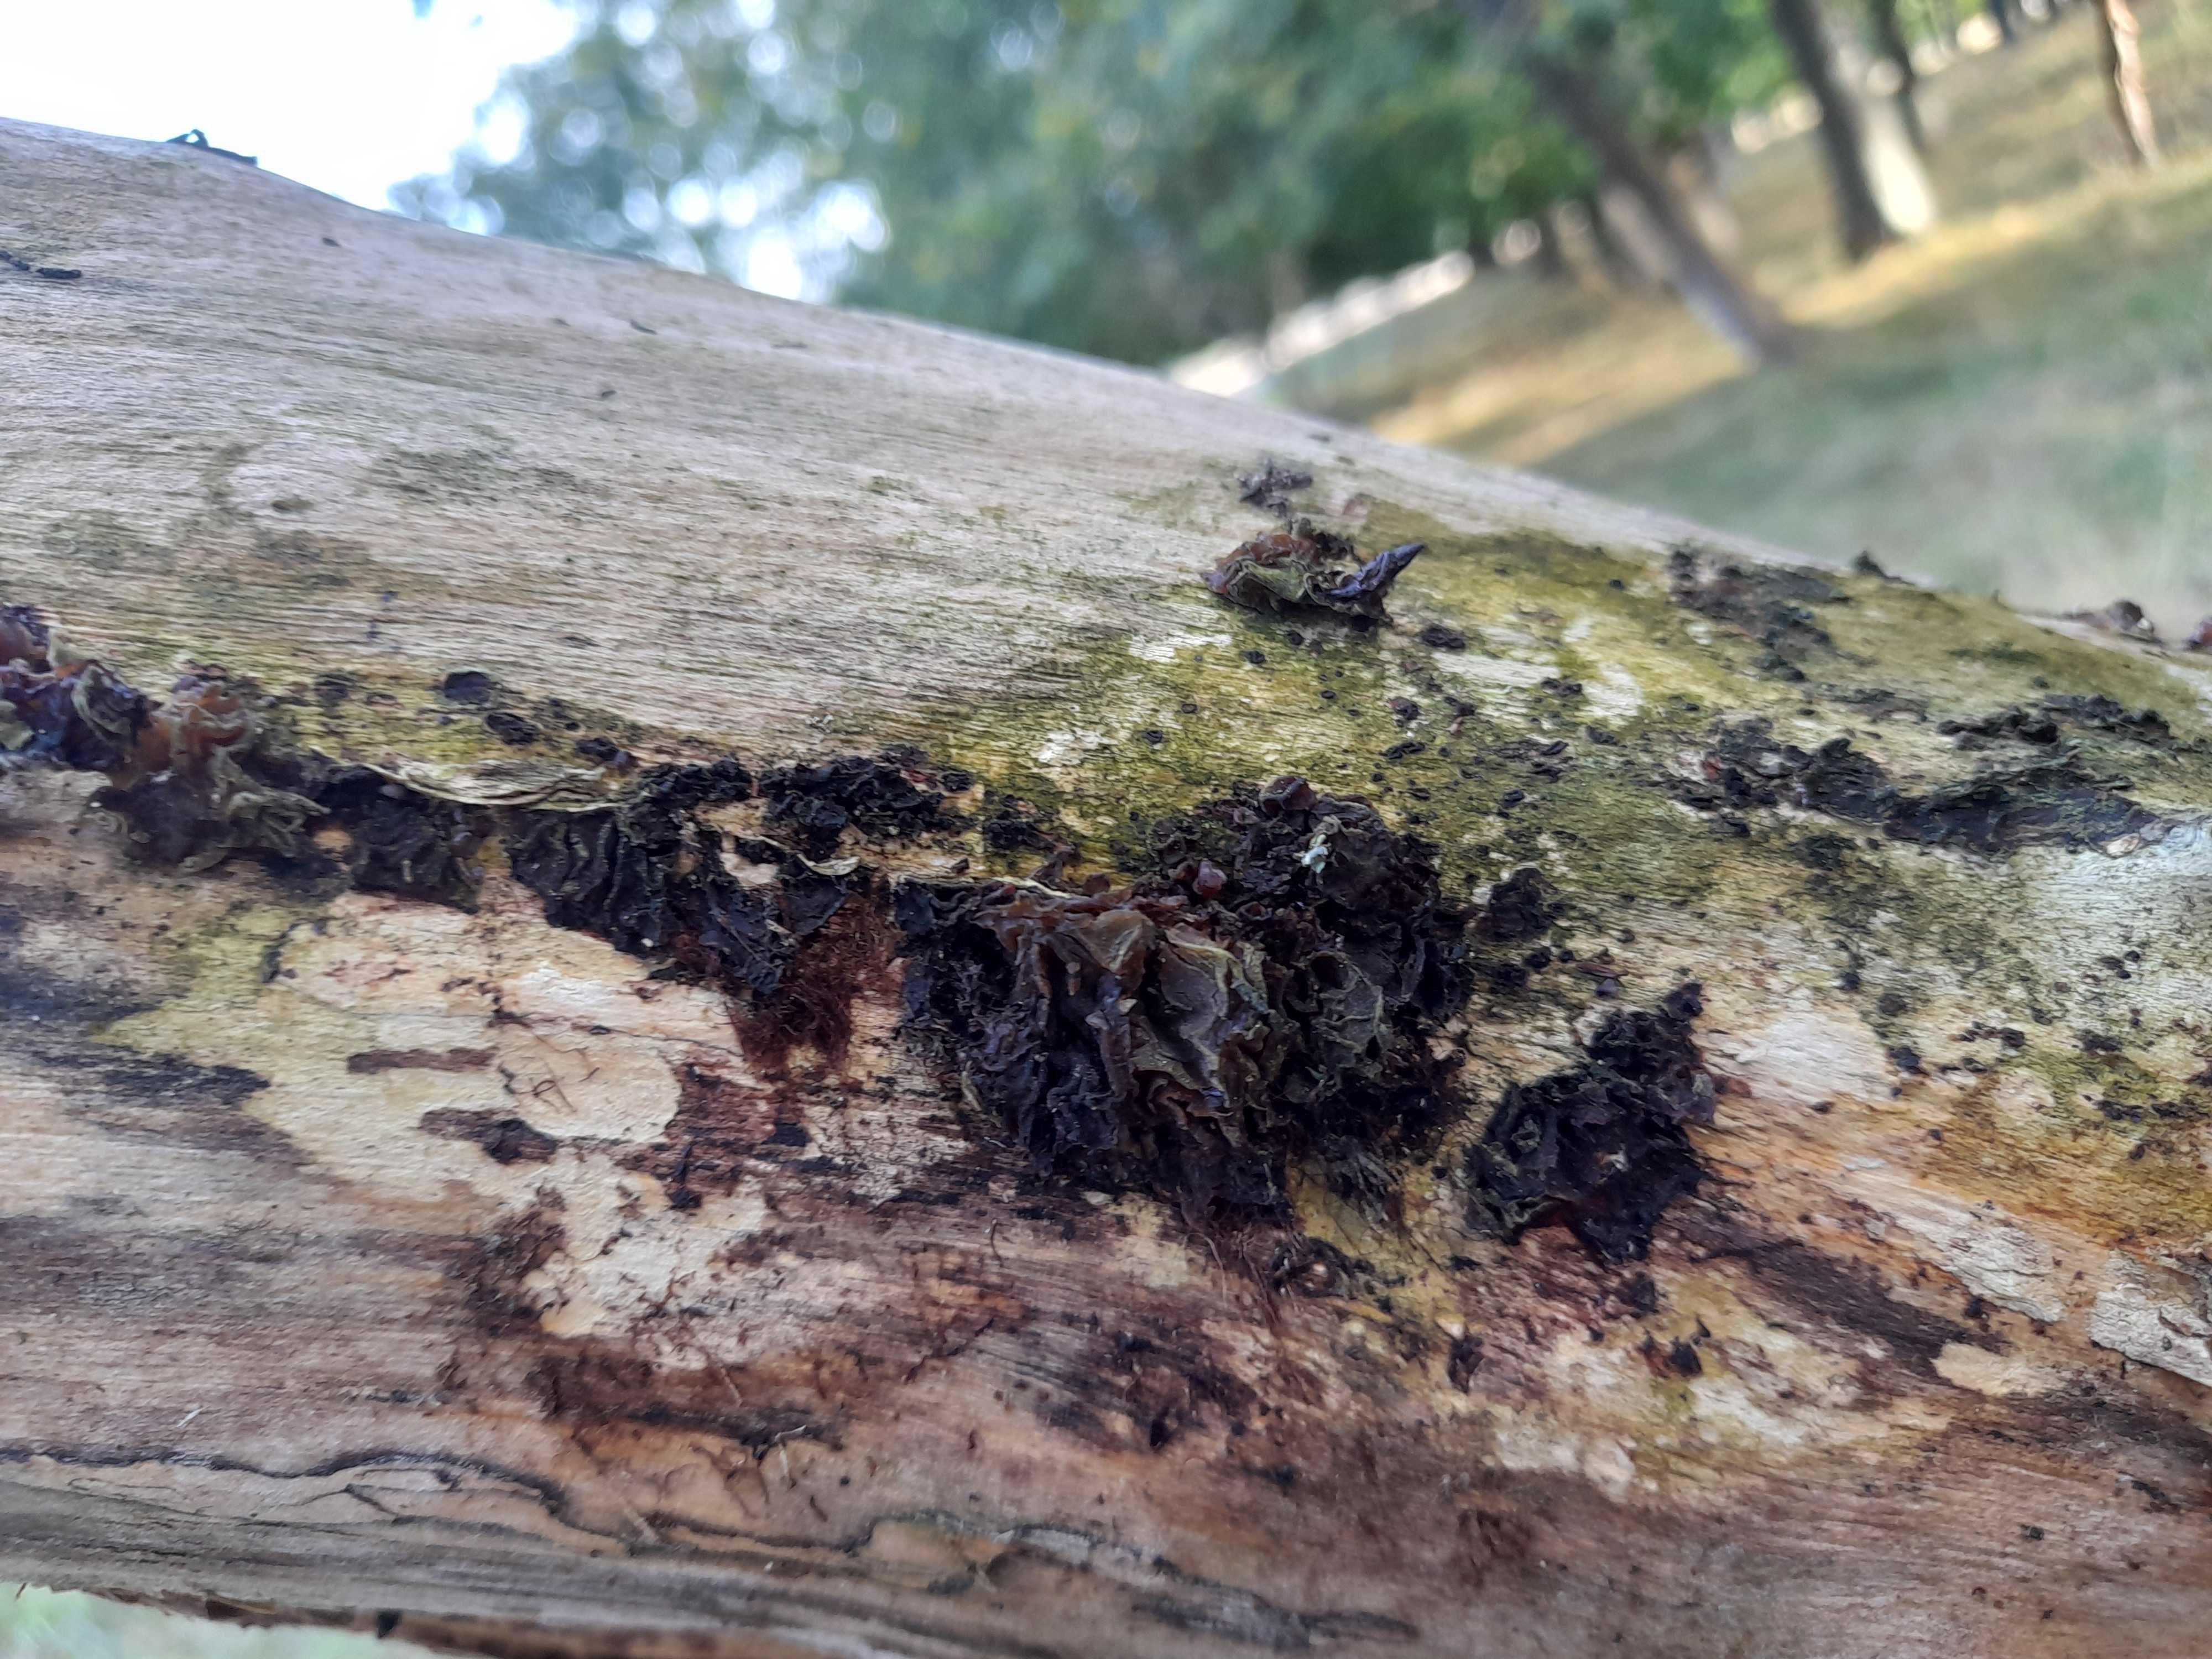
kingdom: Fungi
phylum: Basidiomycota
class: Agaricomycetes
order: Auriculariales
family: Auriculariaceae
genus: Auricularia
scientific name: Auricularia auricula-judae
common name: almindelig judasøre
